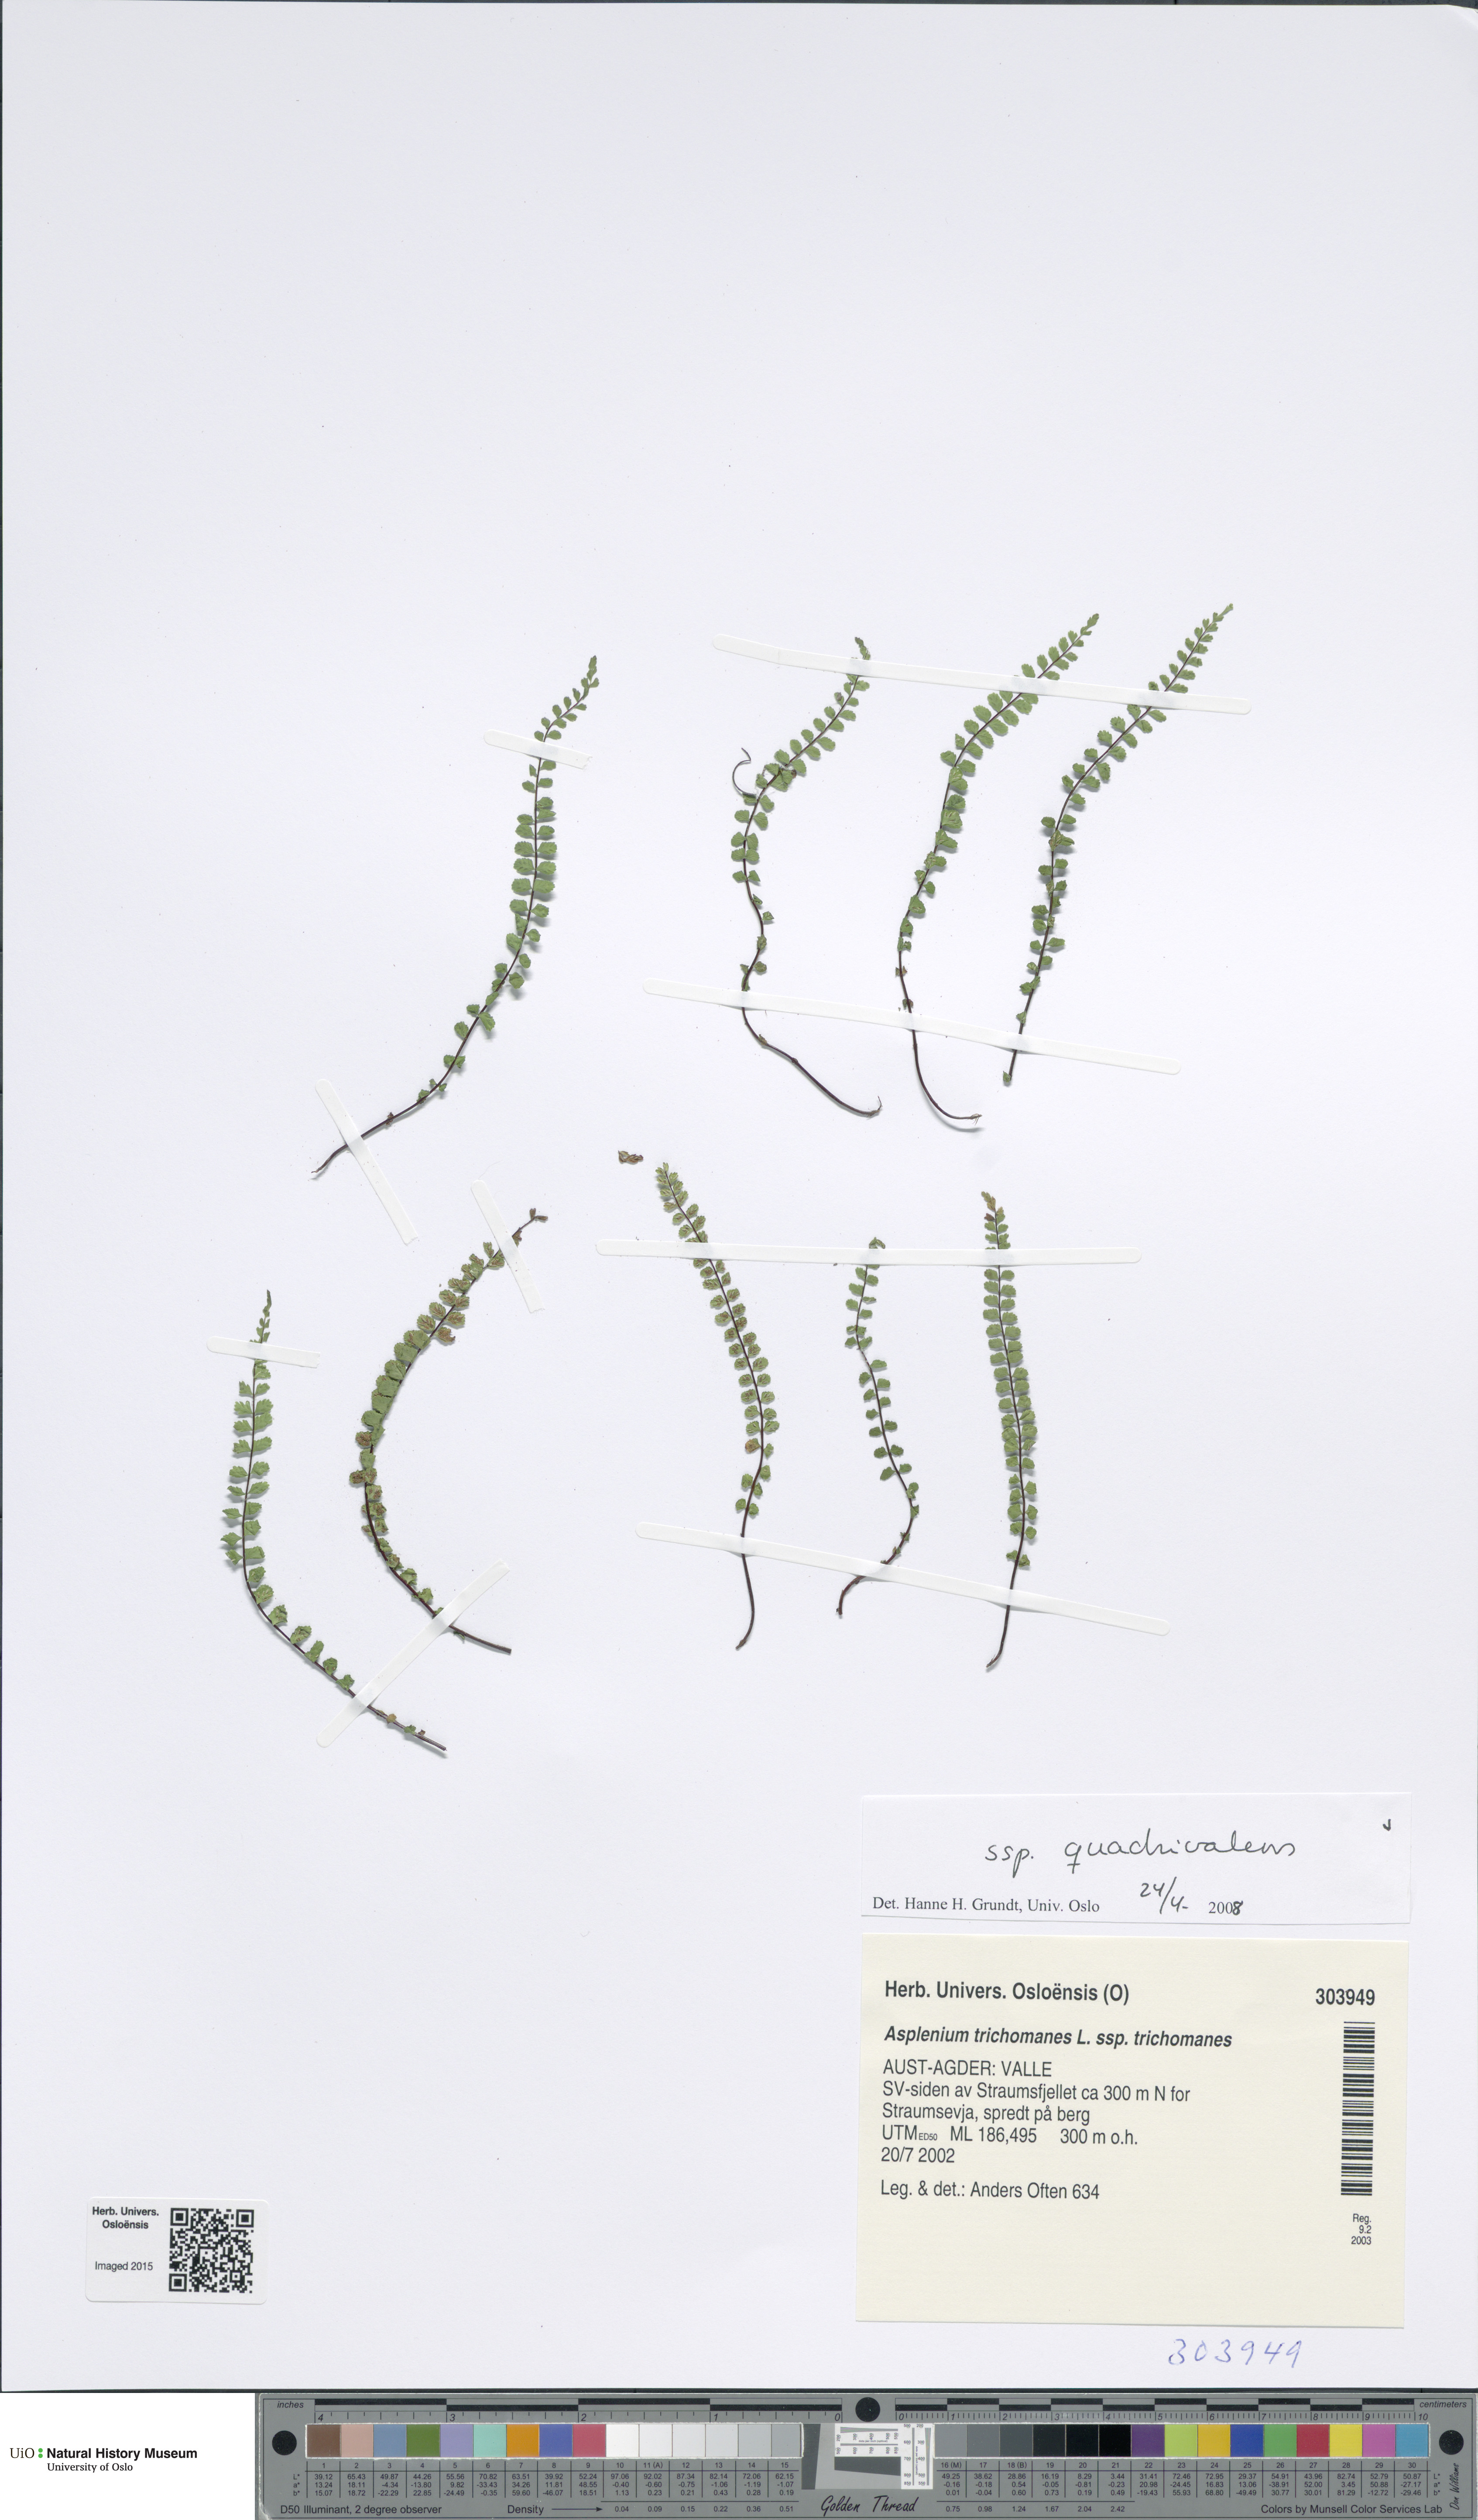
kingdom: Plantae
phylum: Tracheophyta
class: Polypodiopsida
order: Polypodiales
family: Aspleniaceae
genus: Asplenium
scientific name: Asplenium quadrivalens
